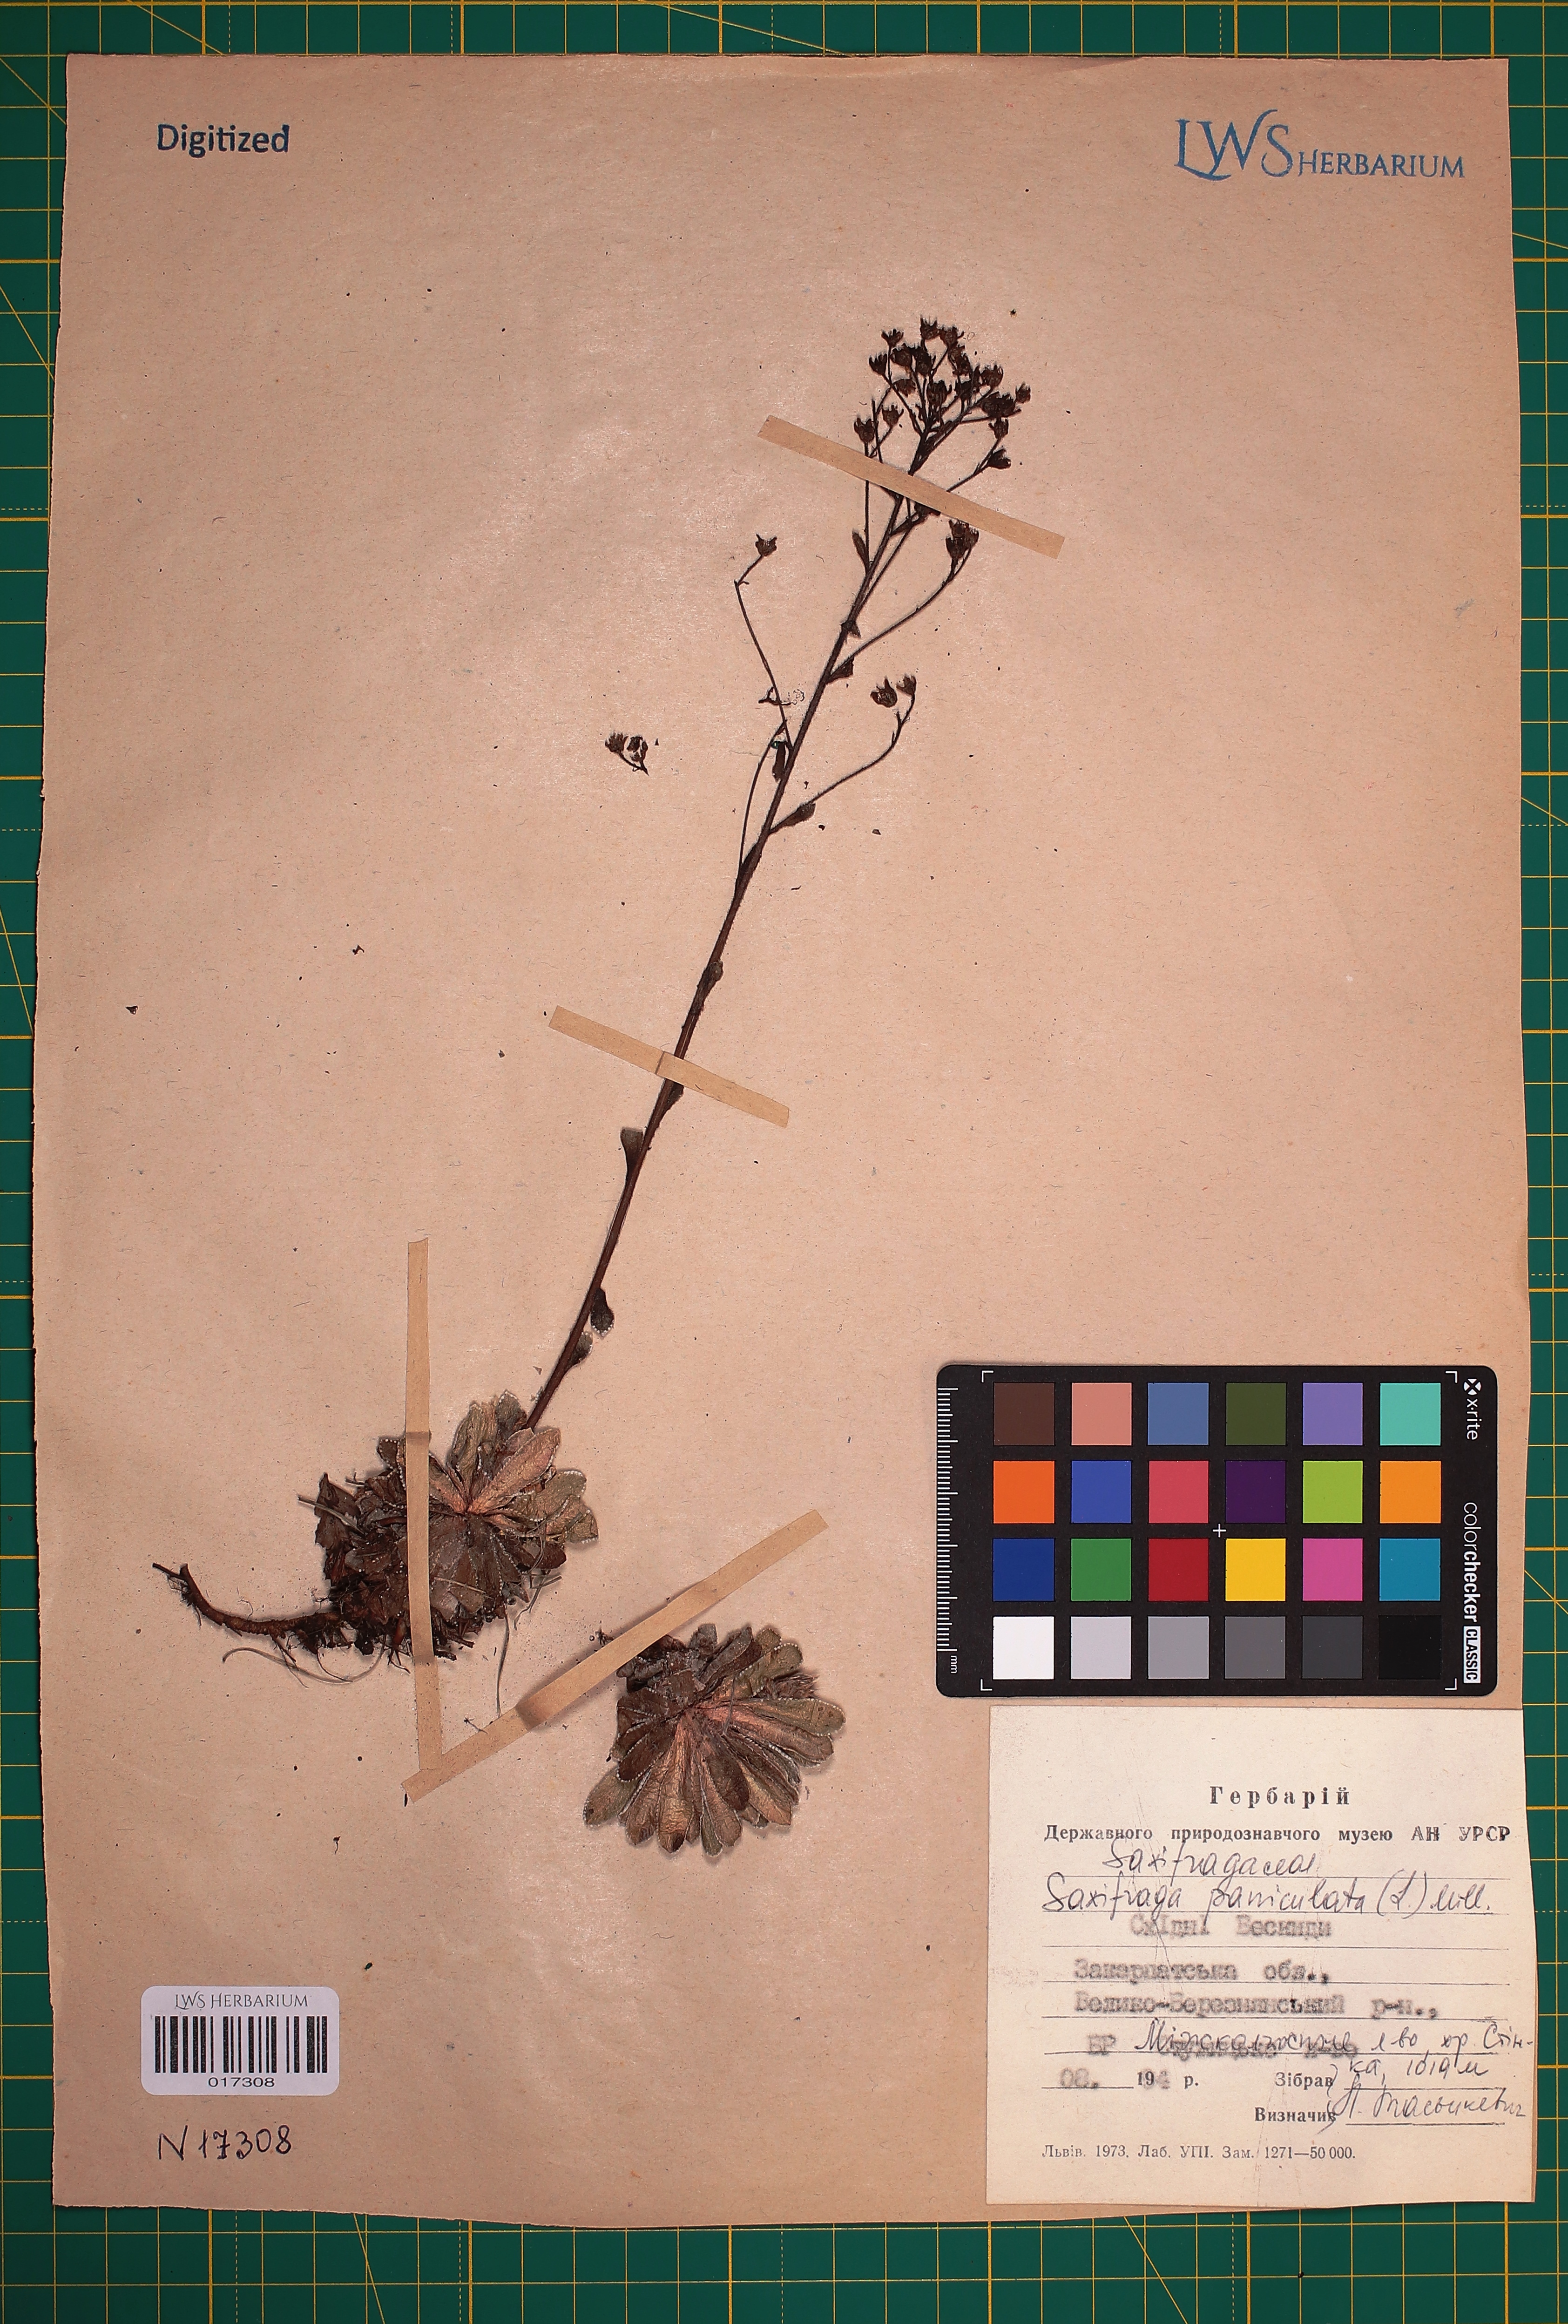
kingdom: Plantae
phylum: Tracheophyta
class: Magnoliopsida
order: Saxifragales
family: Saxifragaceae
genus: Saxifraga
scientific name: Saxifraga paniculata
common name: Livelong saxifrage
